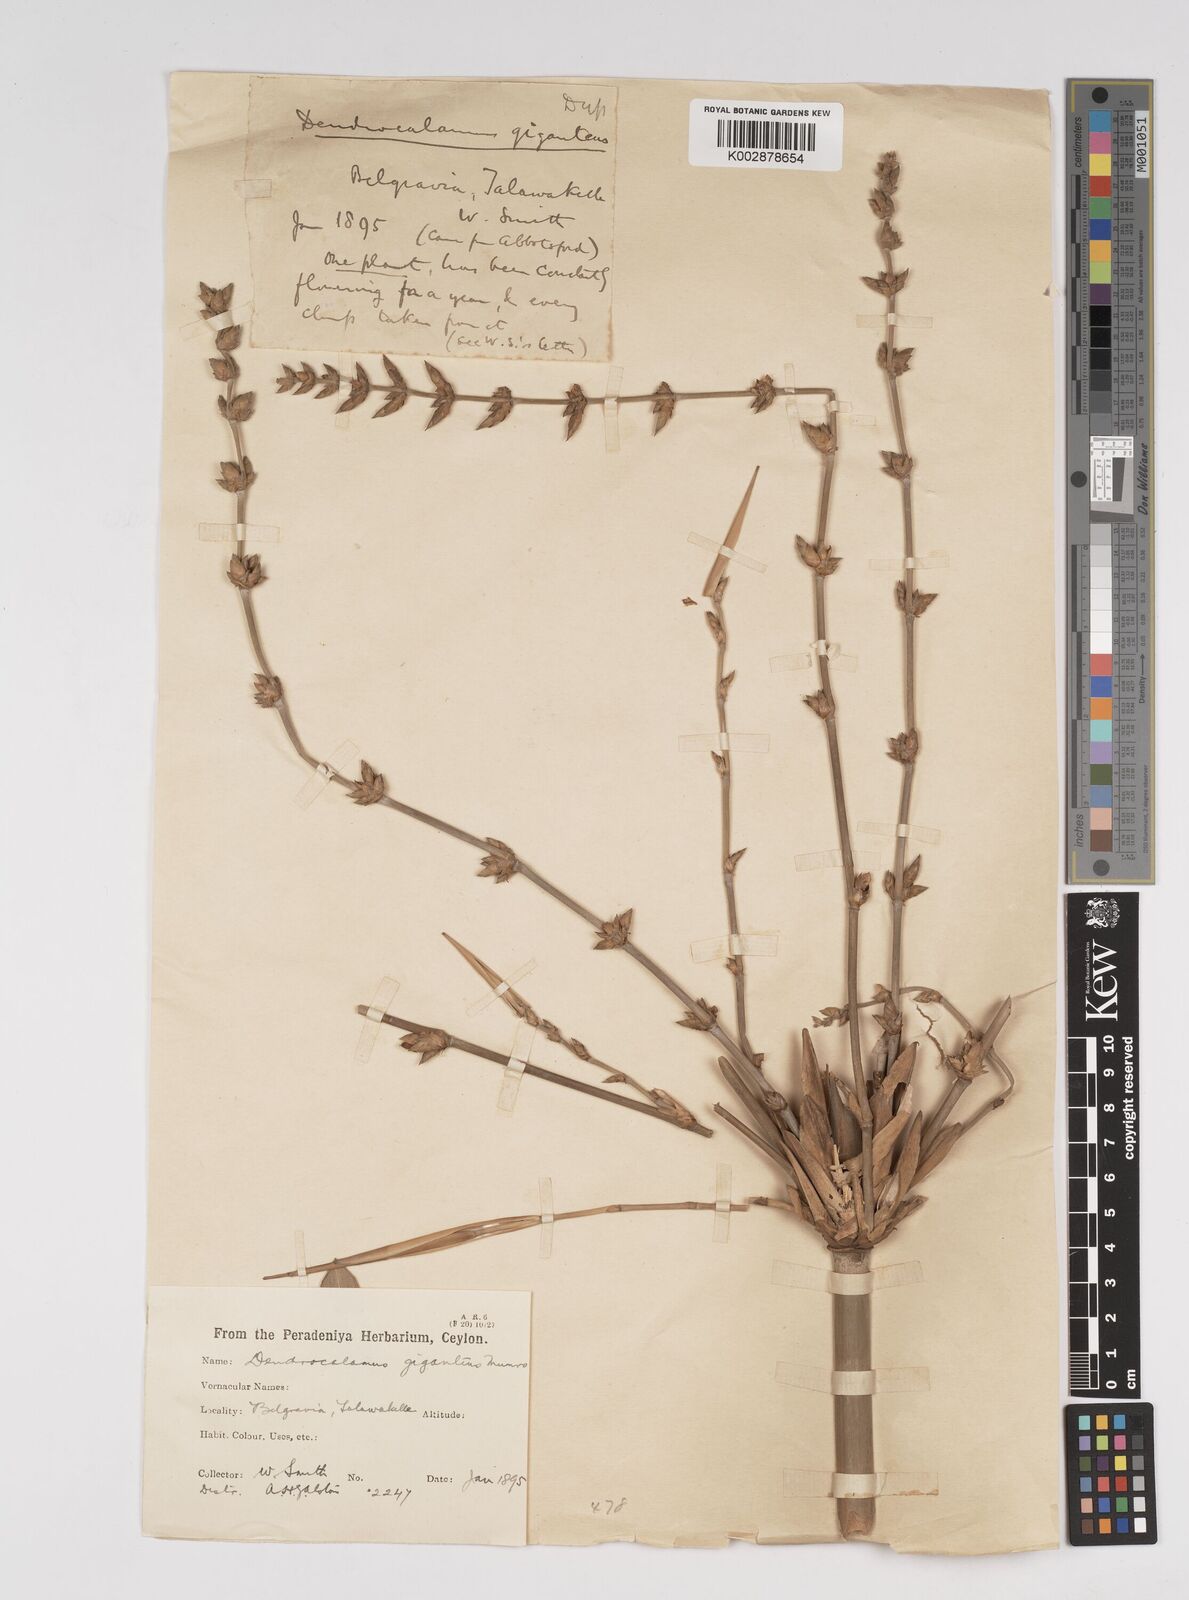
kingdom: Plantae
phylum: Tracheophyta
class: Liliopsida
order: Poales
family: Poaceae
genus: Dendrocalamus
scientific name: Dendrocalamus giganteus
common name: Giant bamboo
